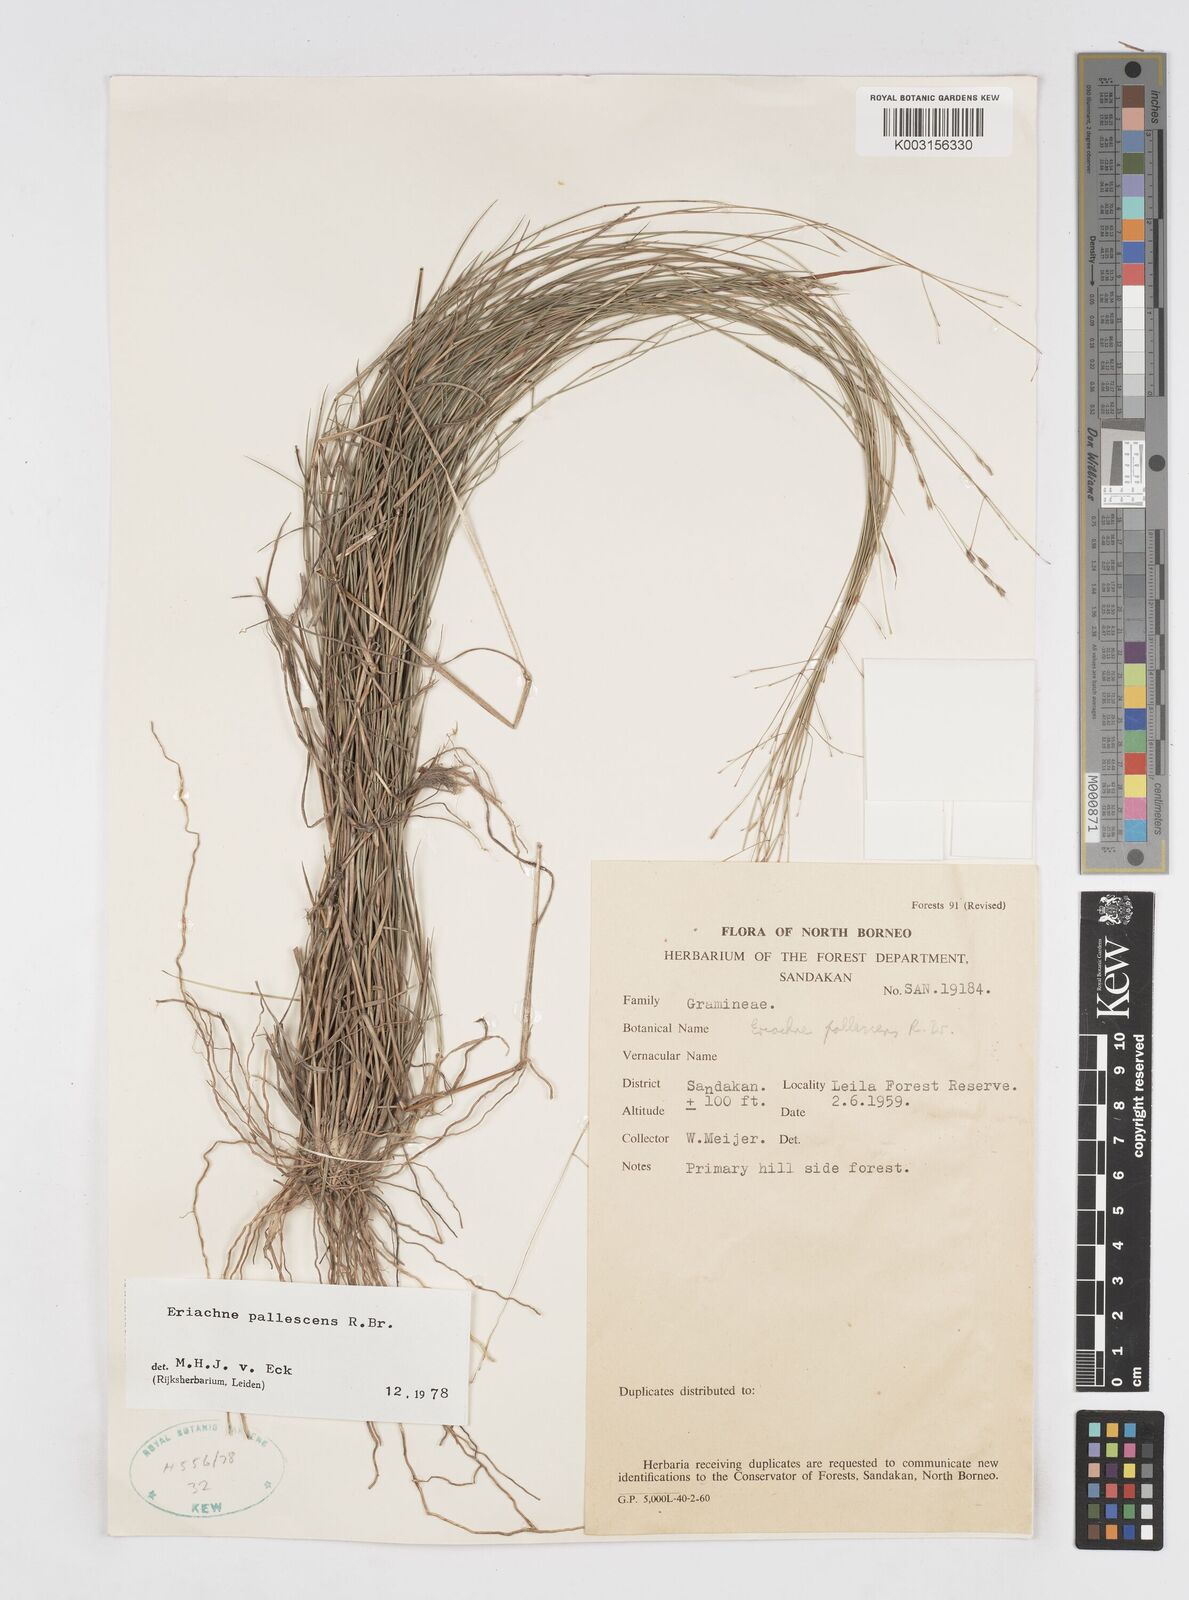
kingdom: Plantae
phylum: Tracheophyta
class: Liliopsida
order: Poales
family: Poaceae
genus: Eriachne
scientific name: Eriachne pallescens
